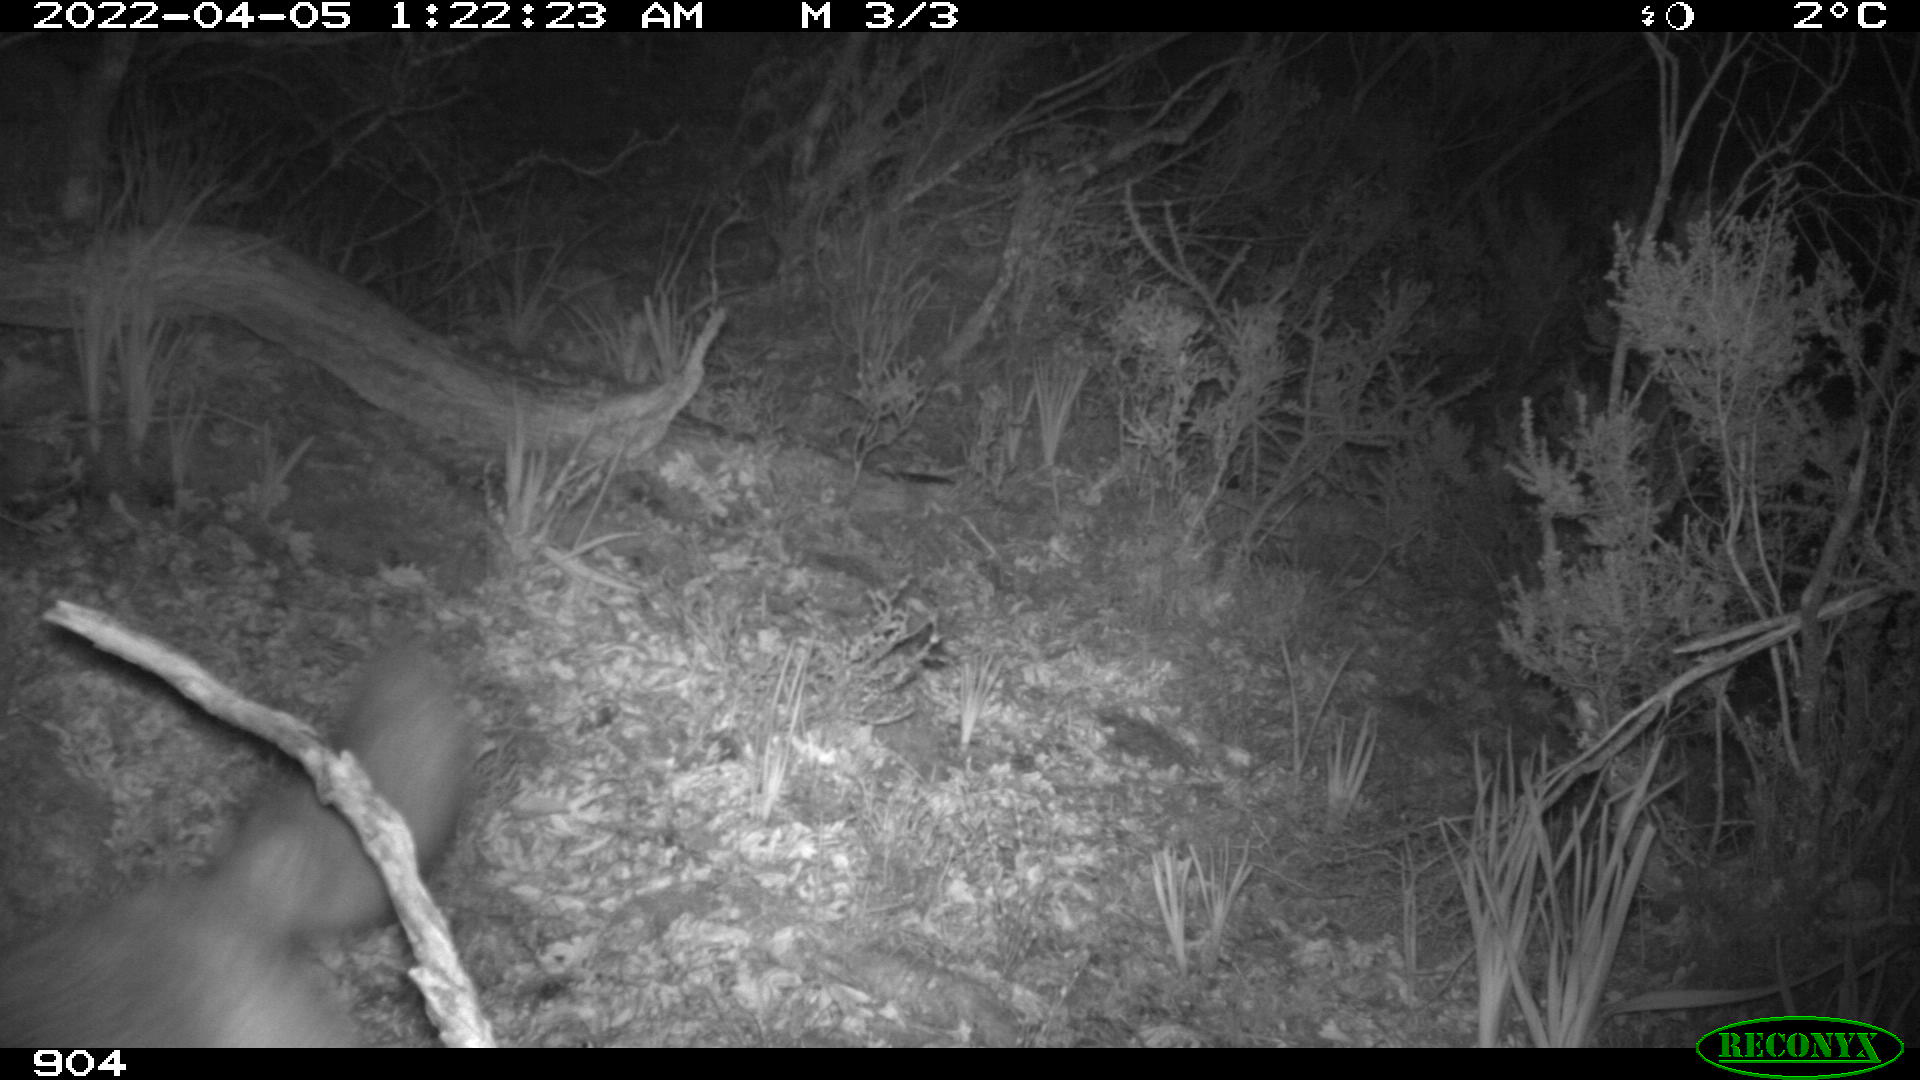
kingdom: Animalia
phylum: Chordata
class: Mammalia
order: Carnivora
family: Canidae
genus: Vulpes
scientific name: Vulpes vulpes
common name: Red fox
